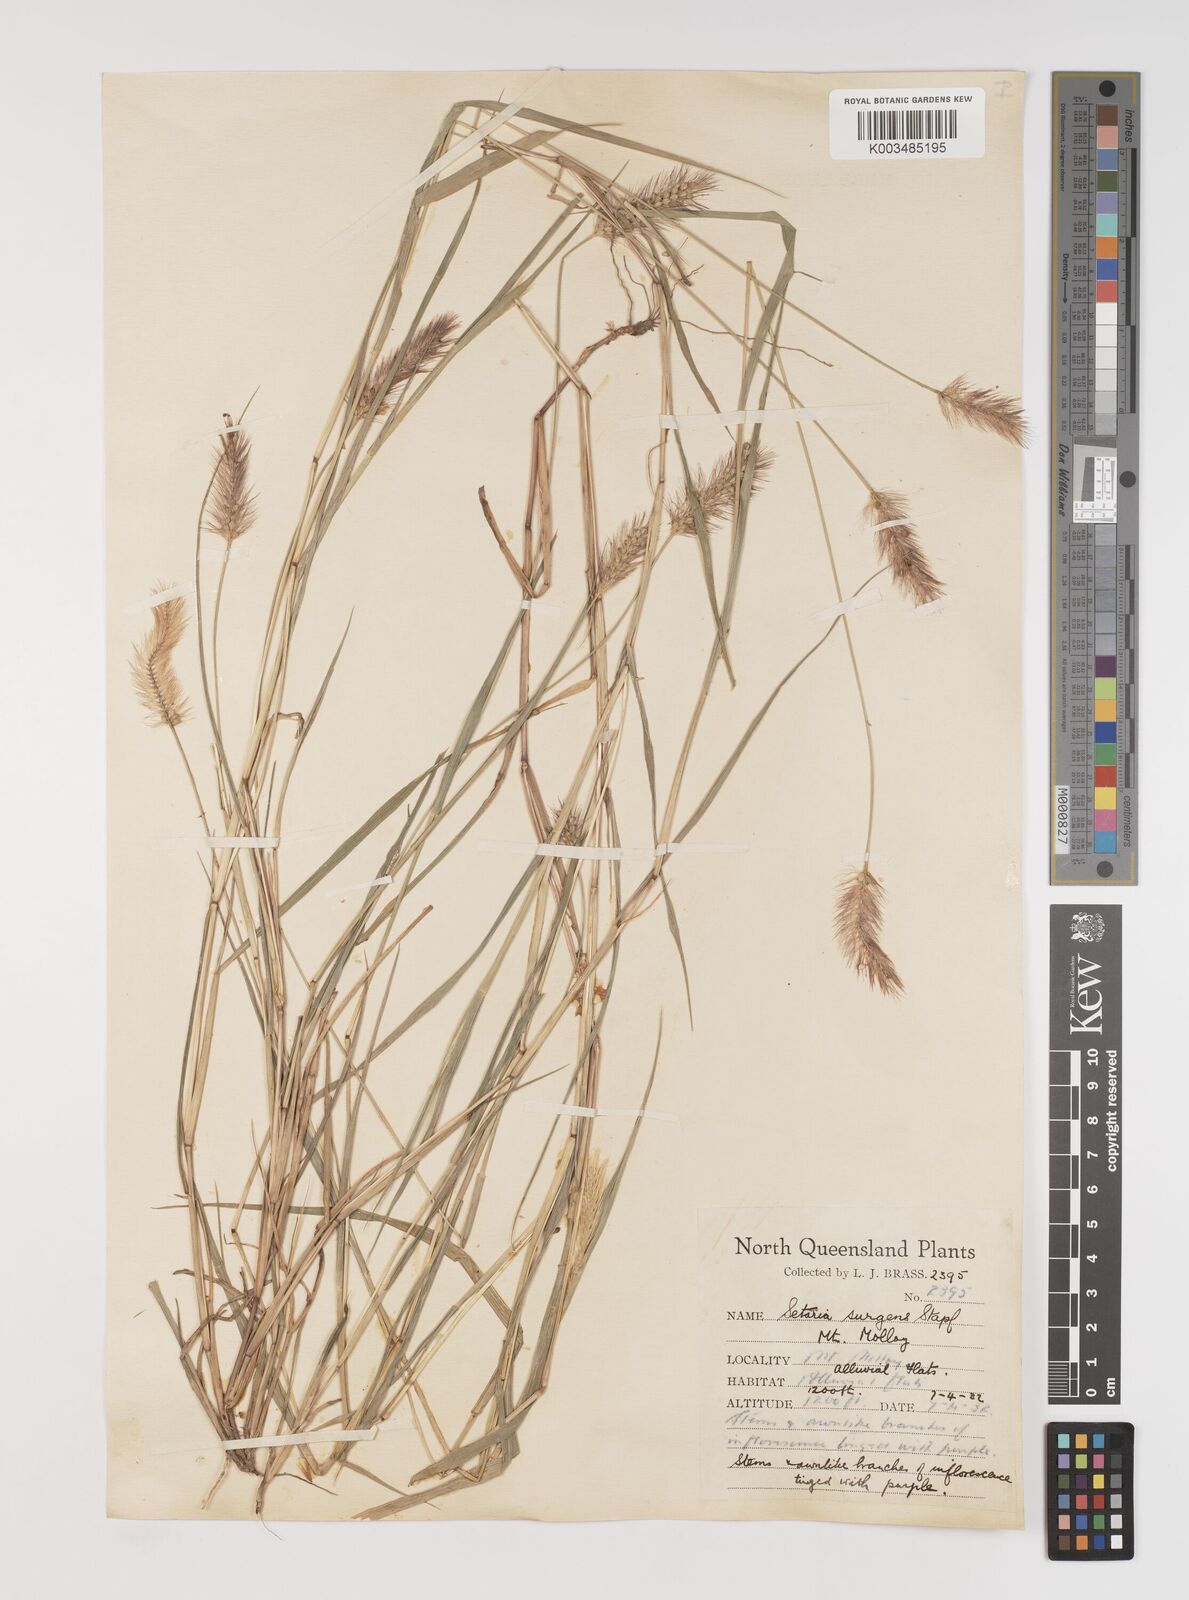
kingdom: Plantae
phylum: Tracheophyta
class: Liliopsida
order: Poales
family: Poaceae
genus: Setaria
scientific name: Setaria apiculata
